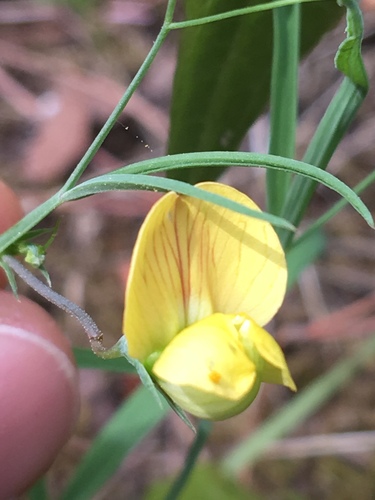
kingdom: Plantae
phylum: Tracheophyta
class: Magnoliopsida
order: Fabales
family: Fabaceae
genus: Lathyrus
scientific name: Lathyrus annuus
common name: Fodder pea
